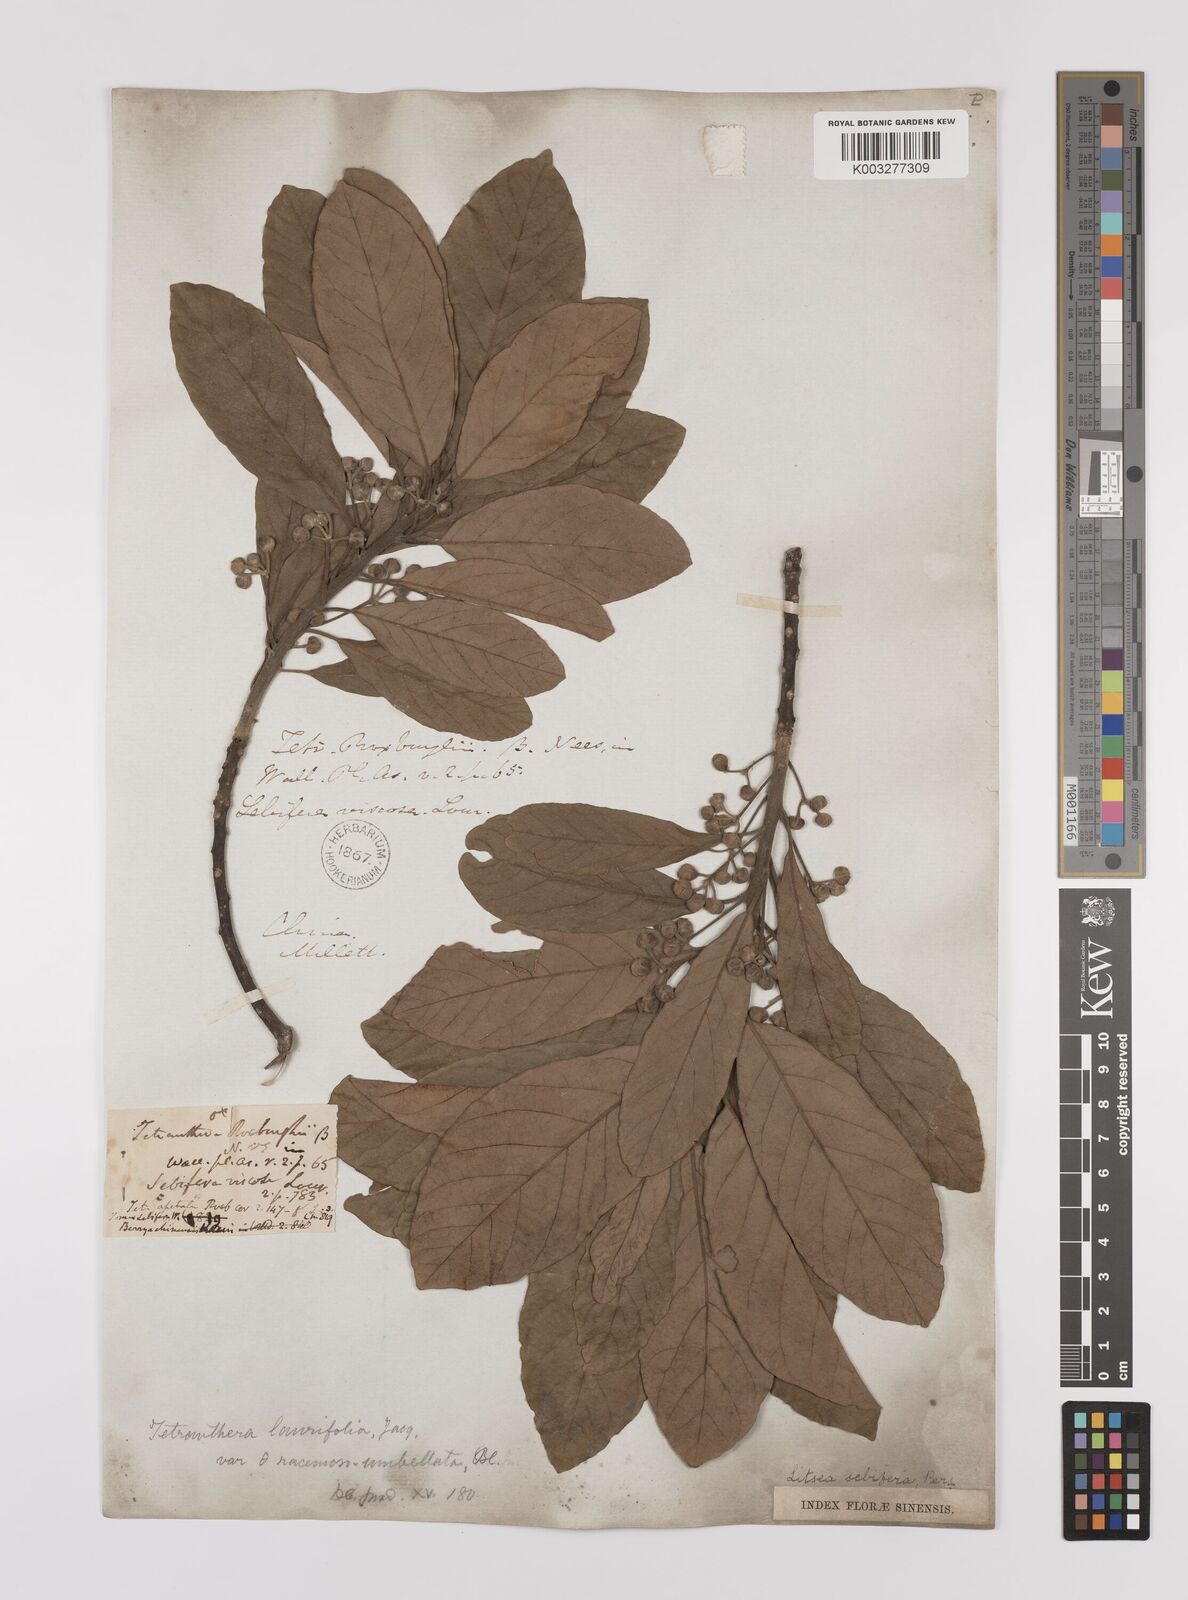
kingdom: Plantae
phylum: Tracheophyta
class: Magnoliopsida
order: Laurales
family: Lauraceae
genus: Litsea
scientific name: Litsea glutinosa
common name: Indian-laurel
